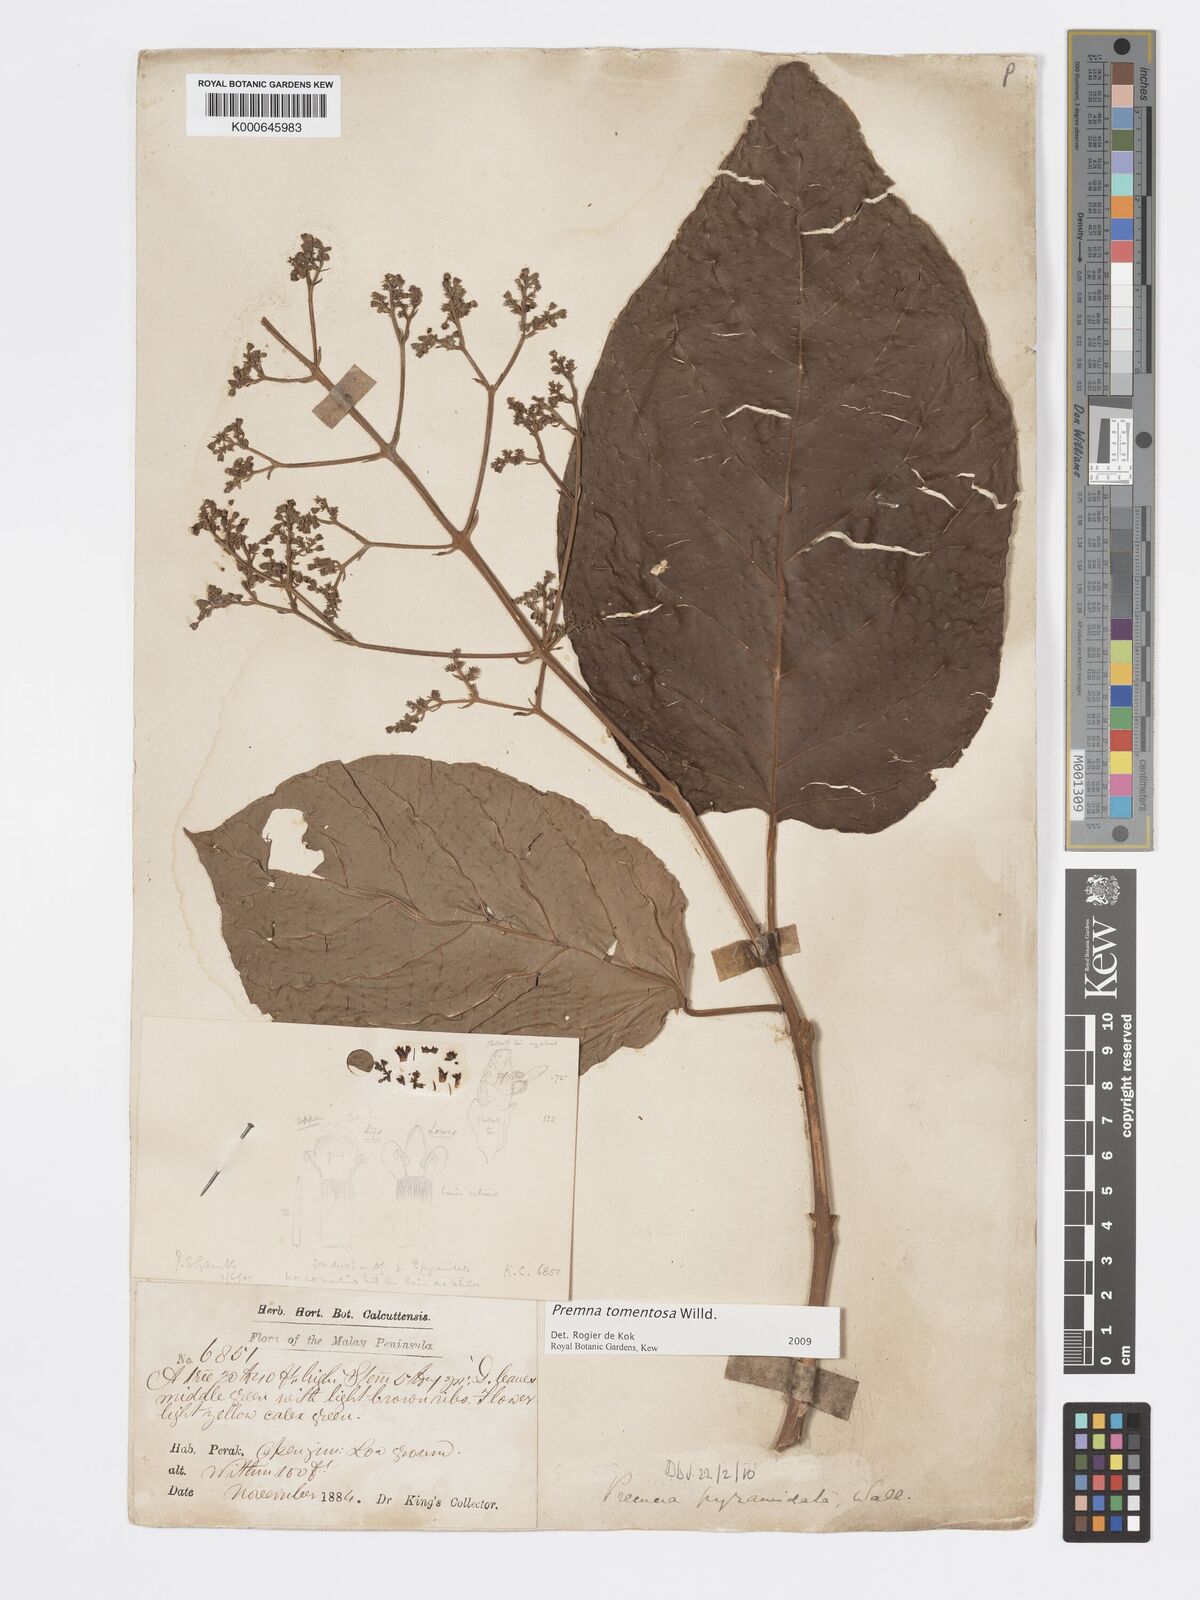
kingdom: Plantae
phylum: Tracheophyta
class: Magnoliopsida
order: Lamiales
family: Lamiaceae
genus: Premna
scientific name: Premna tomentosa
